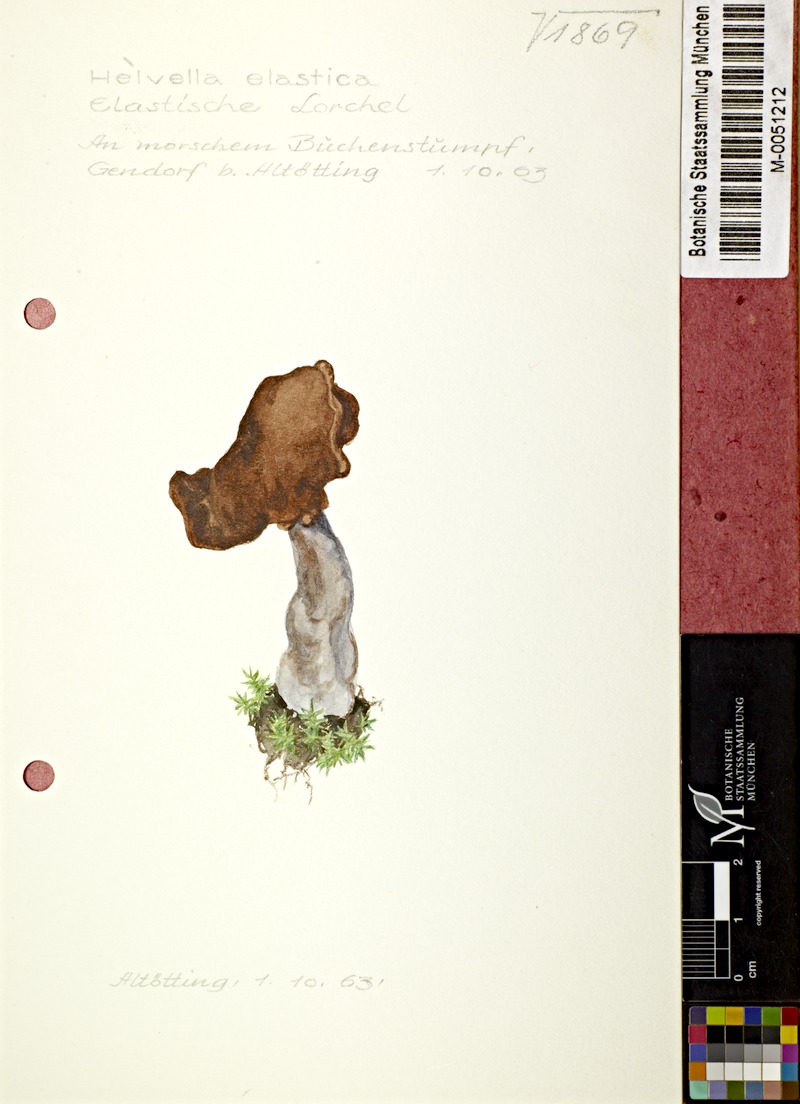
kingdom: Fungi
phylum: Ascomycota
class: Pezizomycetes
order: Pezizales
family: Helvellaceae
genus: Helvella
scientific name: Helvella elastica
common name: Elastic saddle
